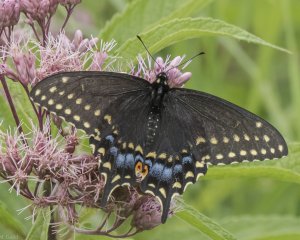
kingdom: Animalia
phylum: Arthropoda
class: Insecta
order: Lepidoptera
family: Papilionidae
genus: Papilio
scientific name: Papilio polyxenes
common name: Black Swallowtail
